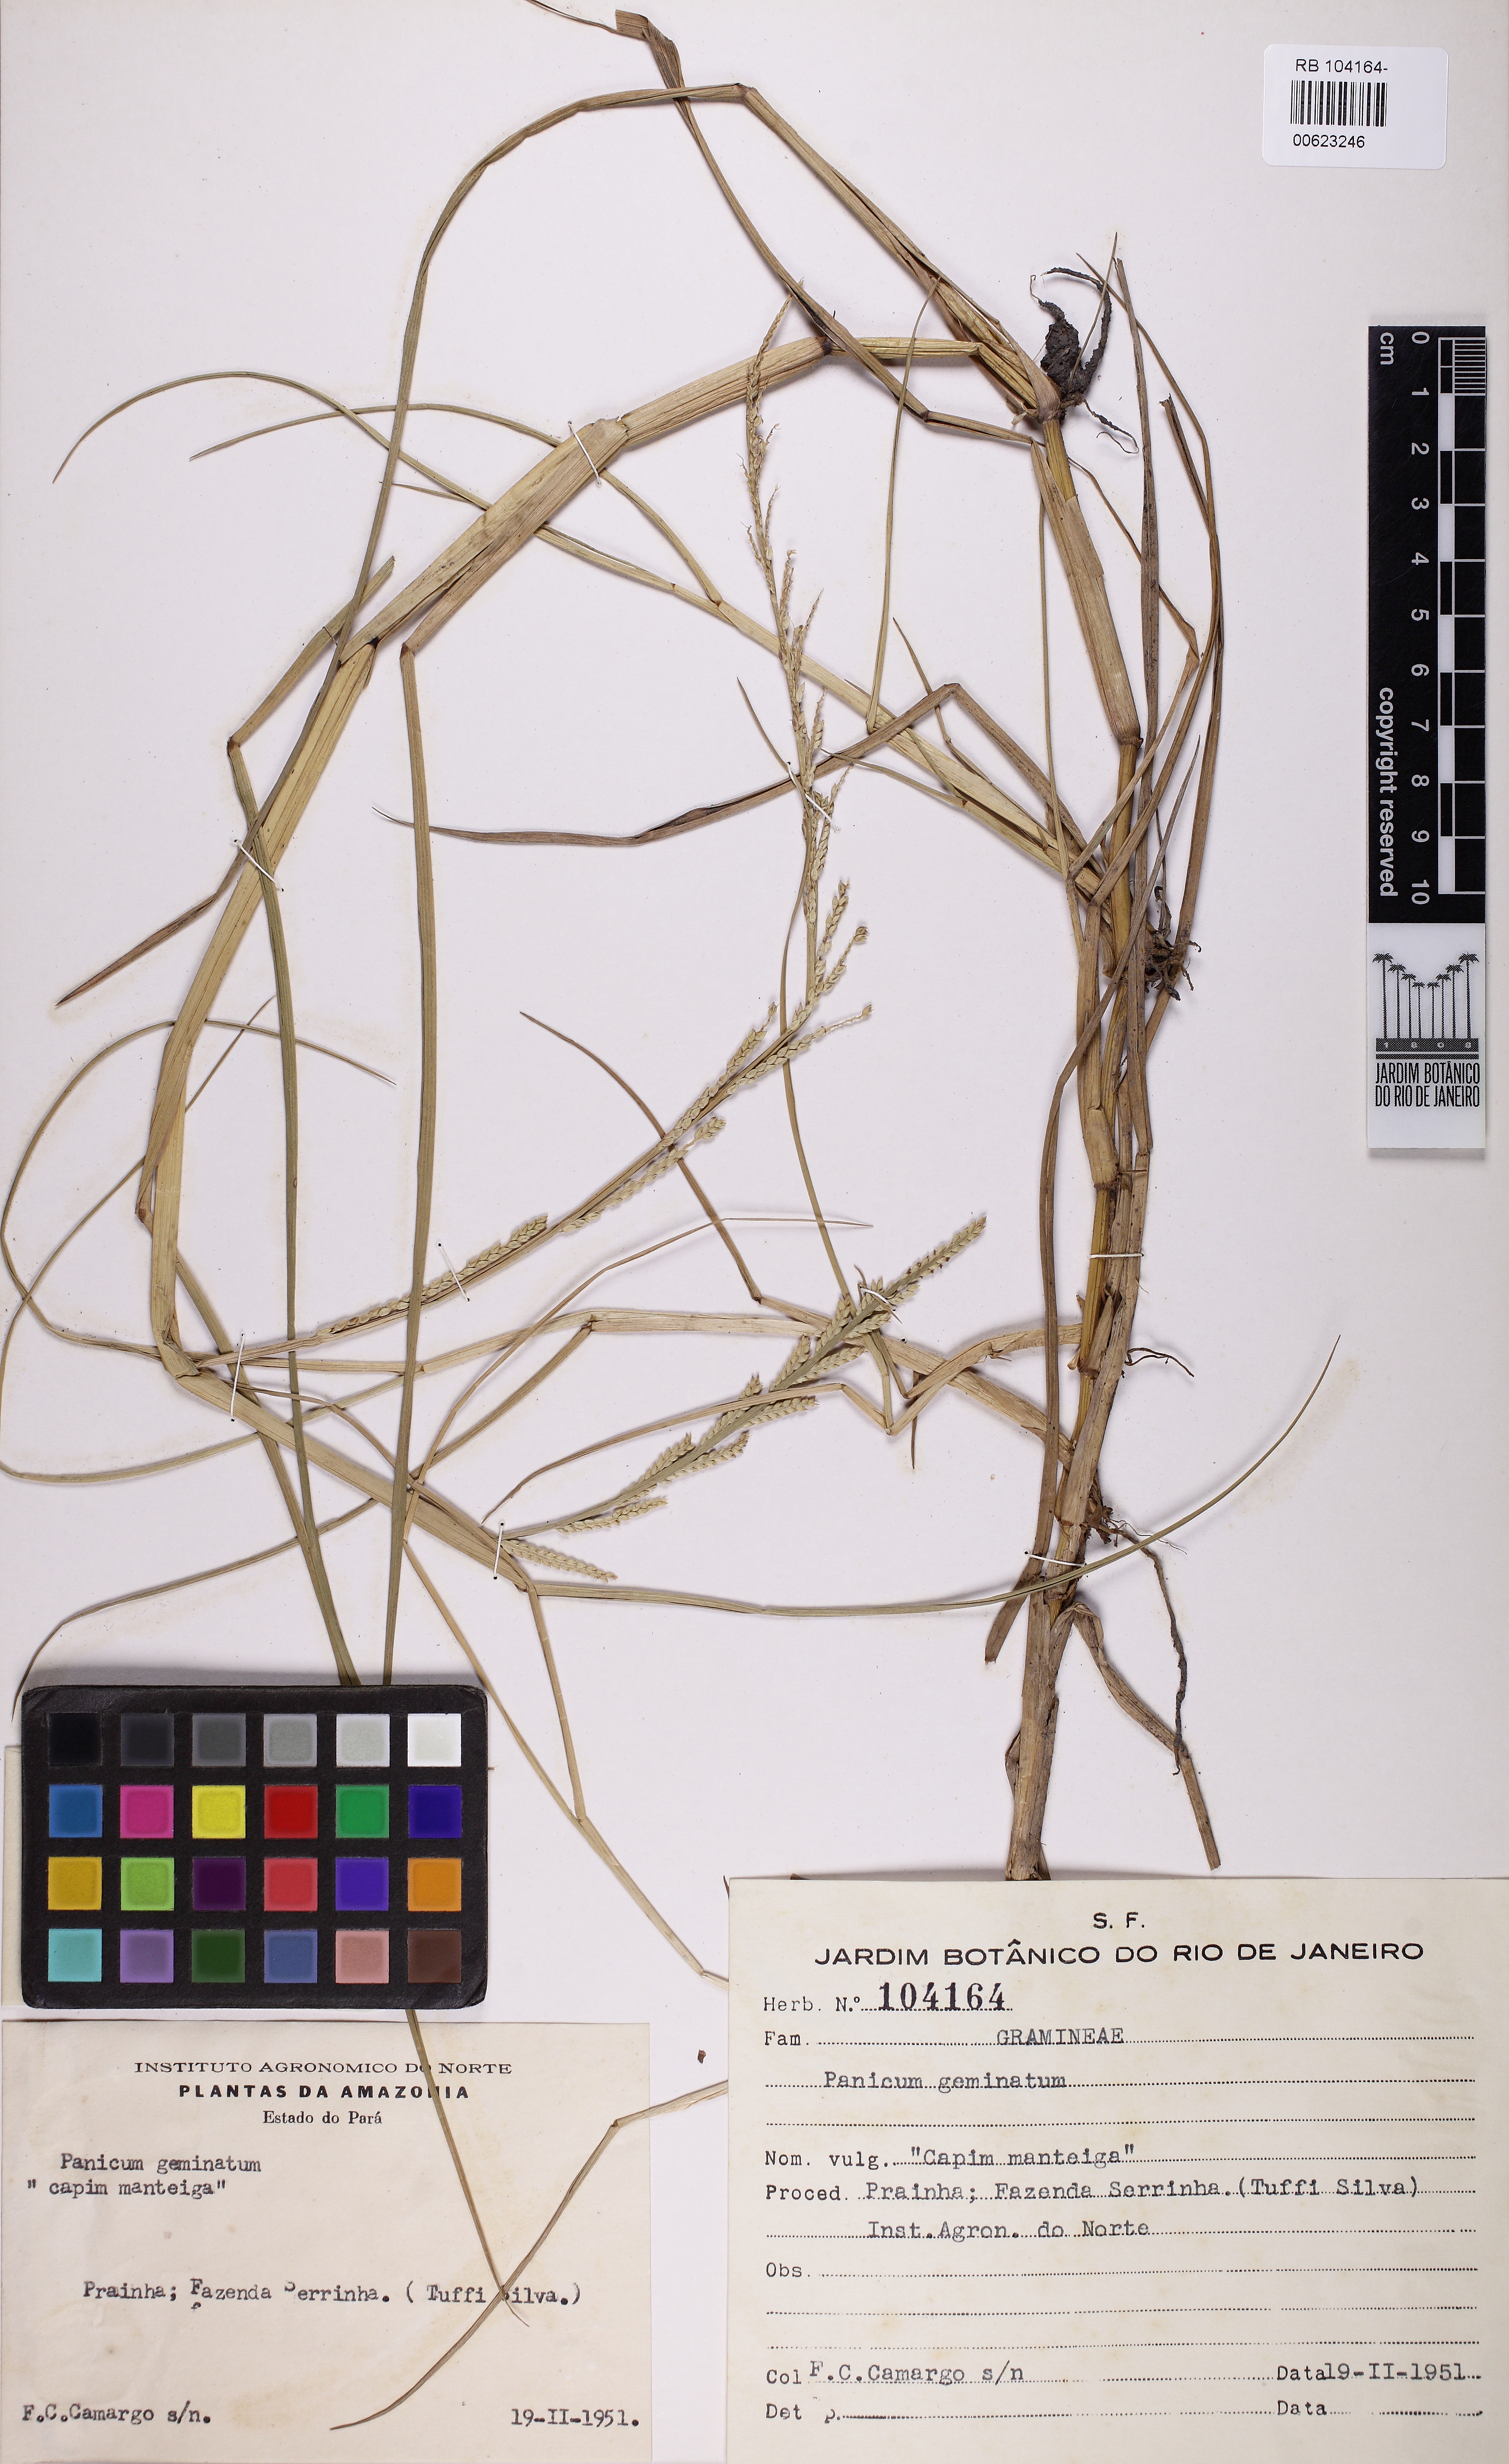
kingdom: Plantae
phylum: Tracheophyta
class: Liliopsida
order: Poales
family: Poaceae
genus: Setaria
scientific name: Setaria geminata
